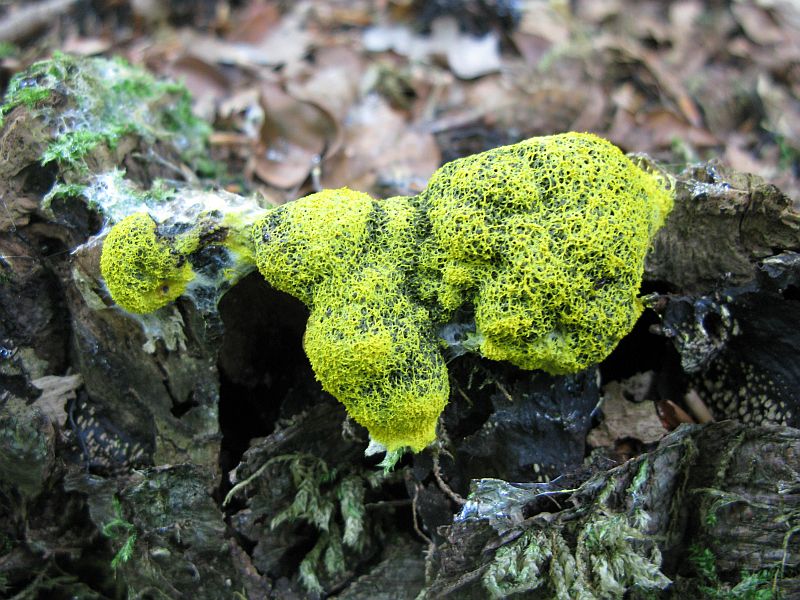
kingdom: Protozoa
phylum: Mycetozoa
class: Myxomycetes
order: Physarales
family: Physaraceae
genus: Fuligo
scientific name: Fuligo septica
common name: gul troldsmør
